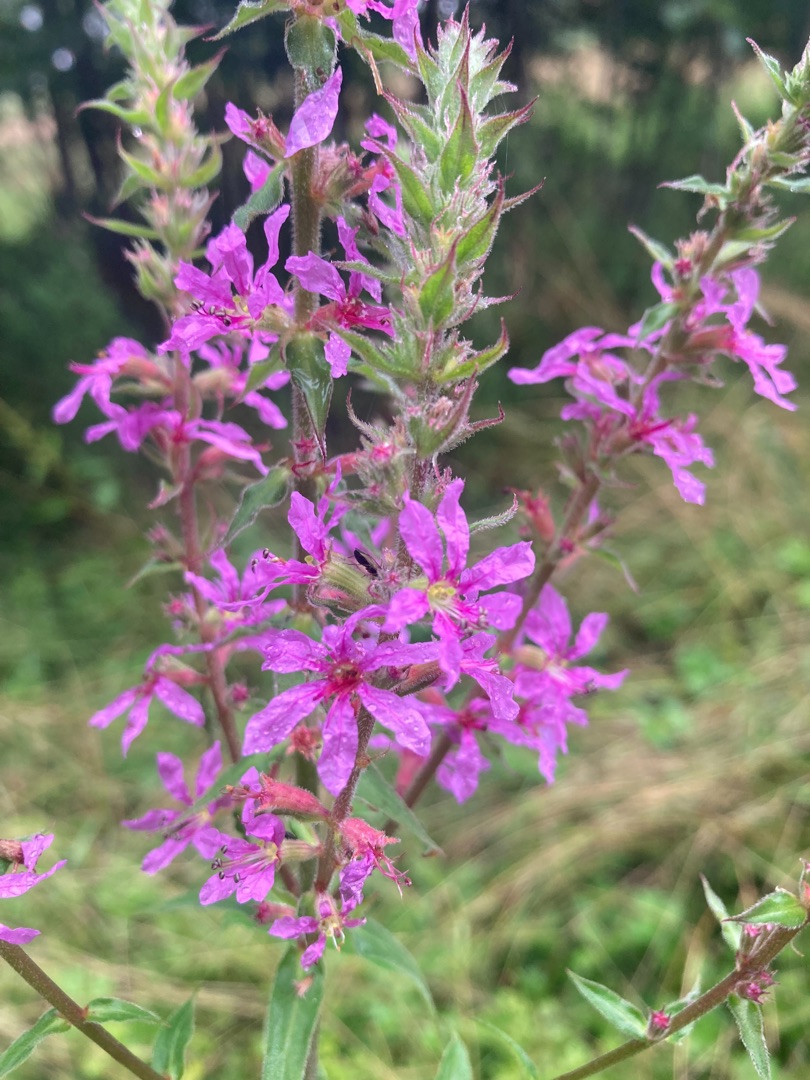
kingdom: Plantae
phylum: Tracheophyta
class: Magnoliopsida
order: Myrtales
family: Lythraceae
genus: Lythrum
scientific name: Lythrum salicaria
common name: Kattehale
